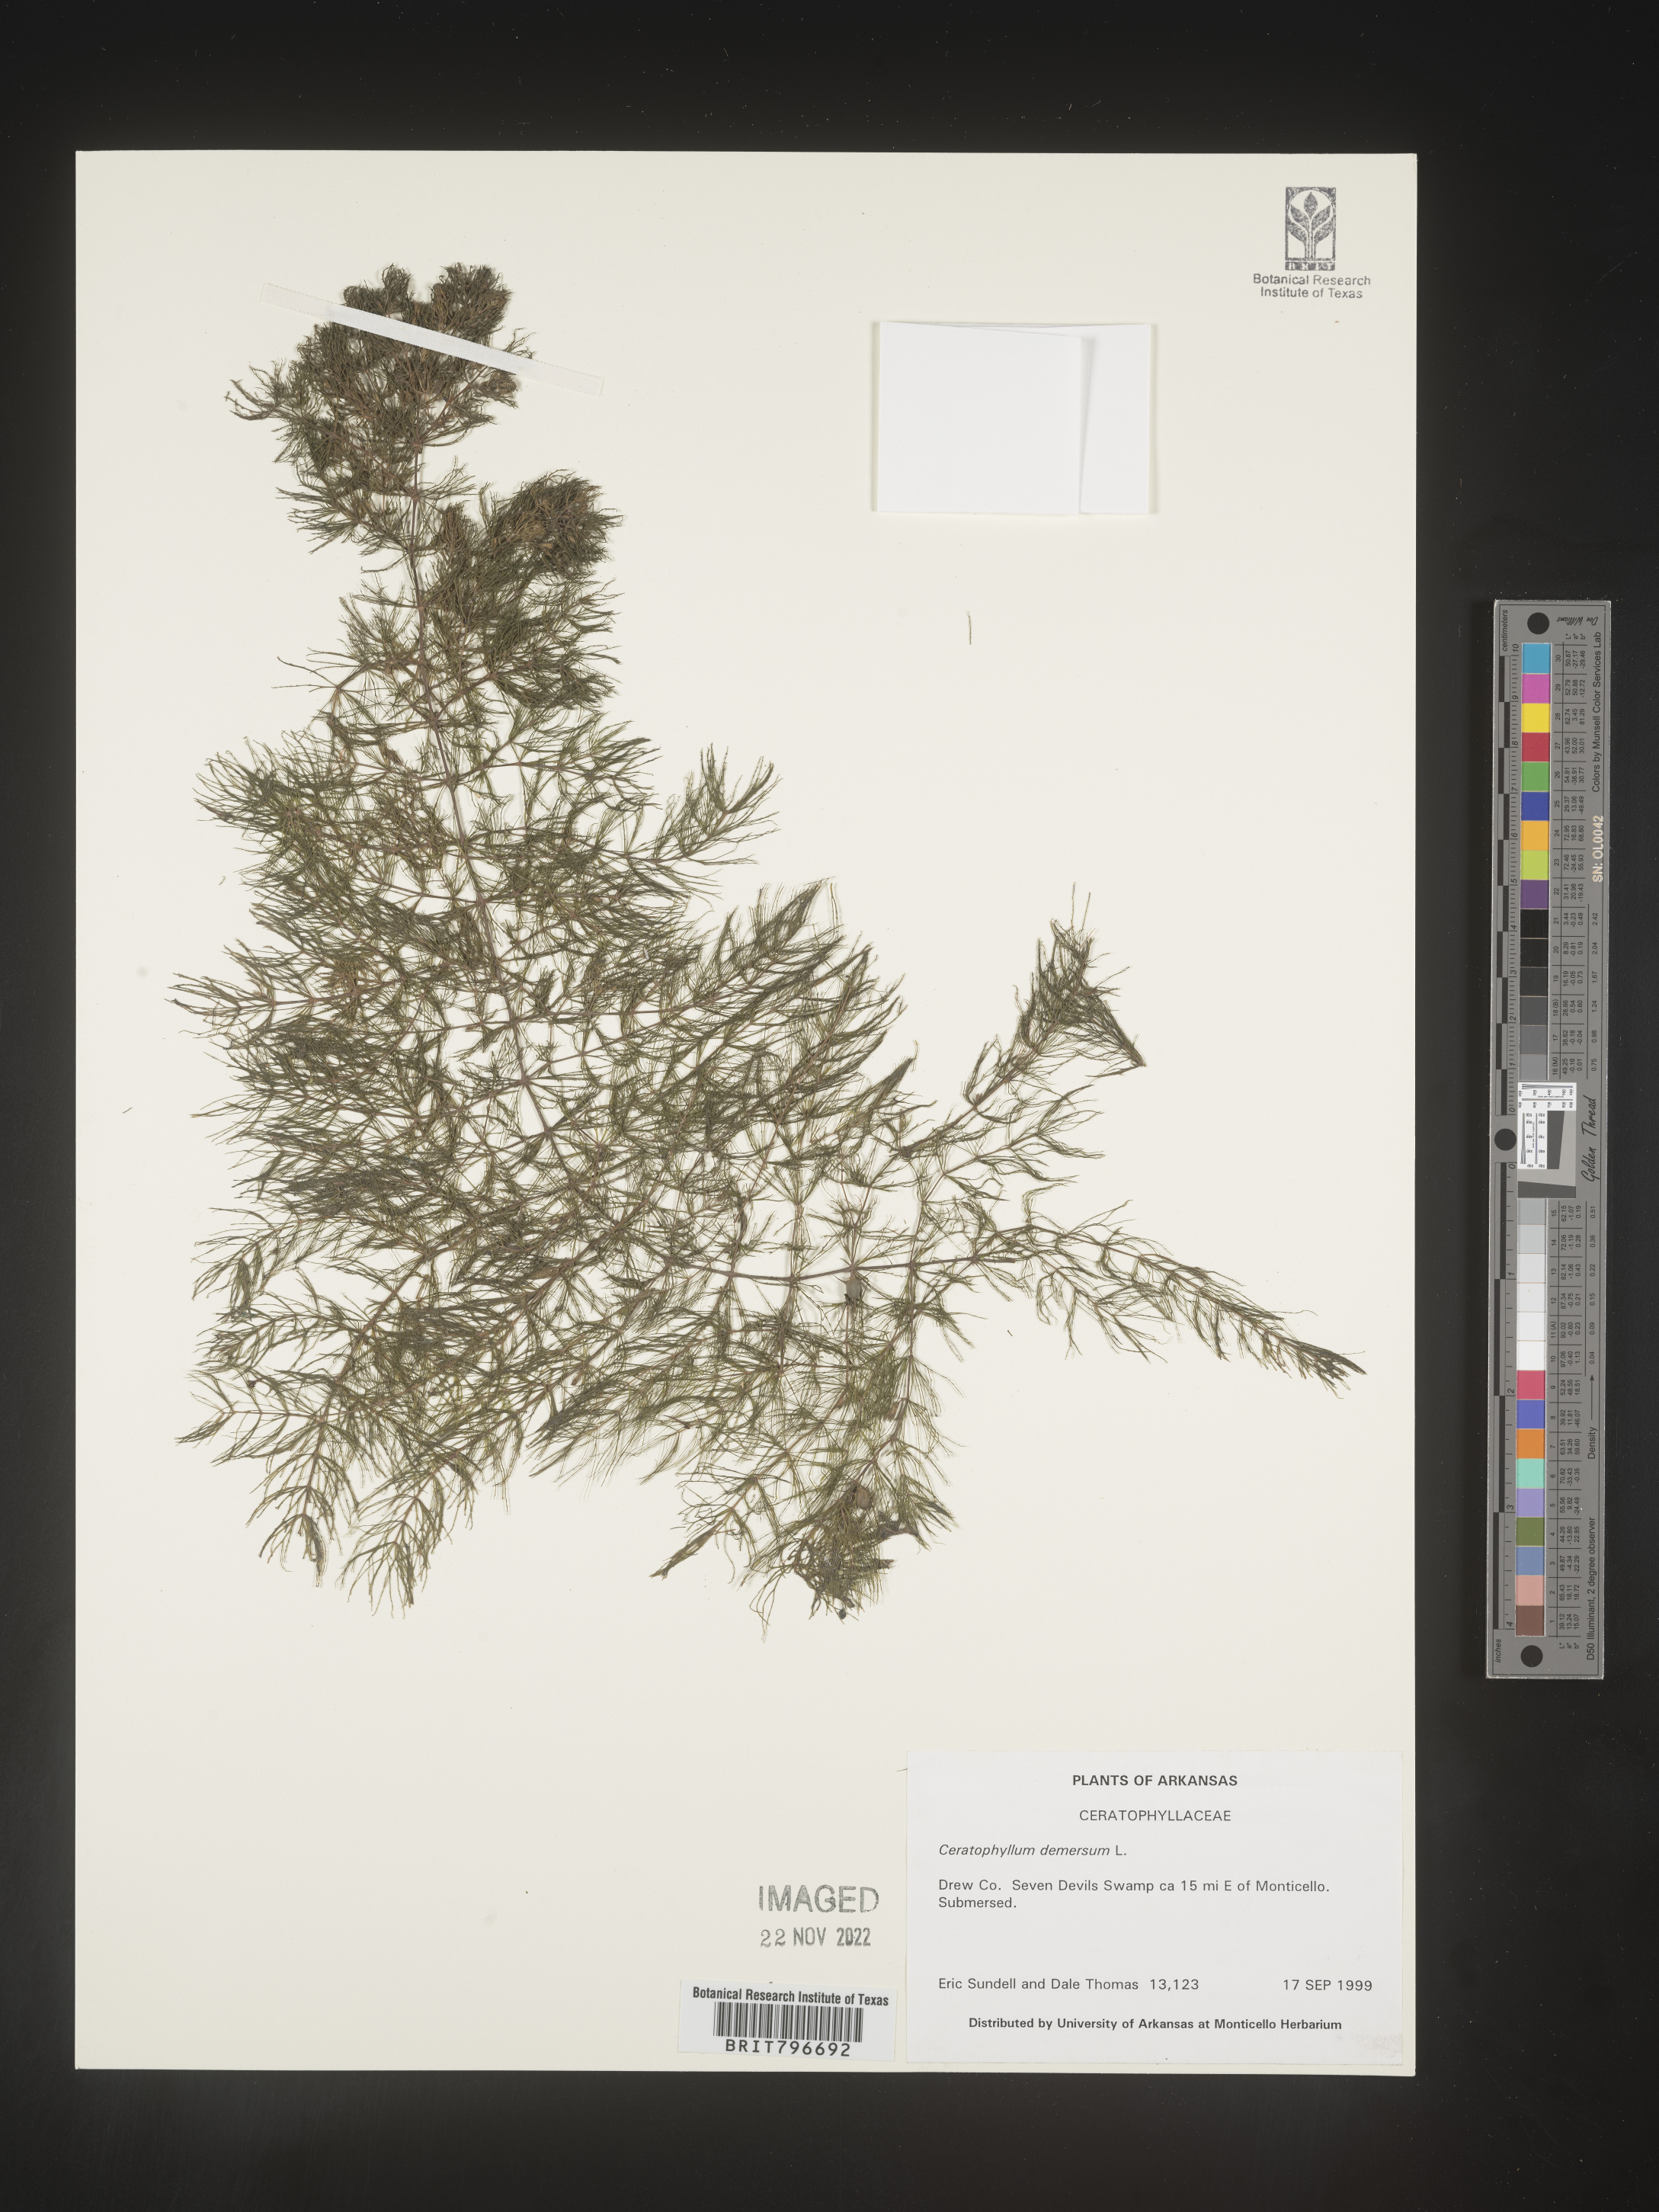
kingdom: Plantae
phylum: Tracheophyta
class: Magnoliopsida
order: Ceratophyllales
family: Ceratophyllaceae
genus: Ceratophyllum
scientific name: Ceratophyllum demersum
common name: Rigid hornwort
